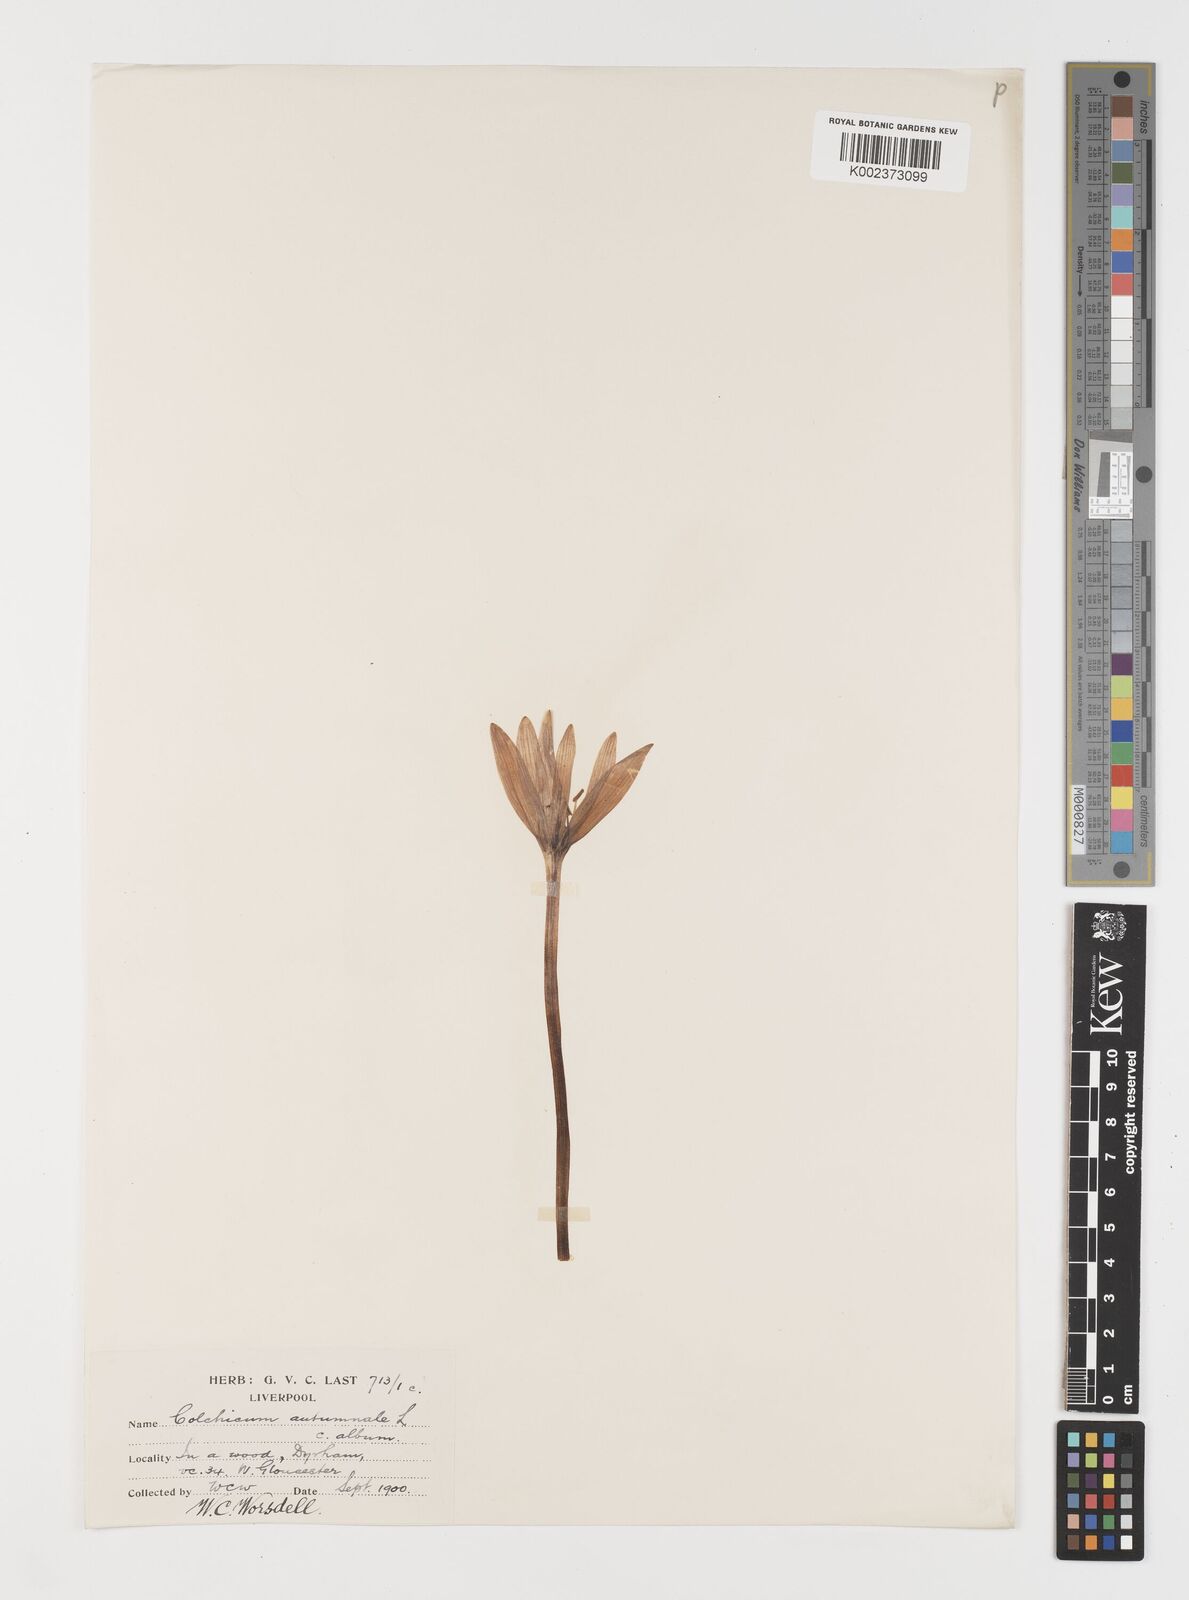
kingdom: Plantae
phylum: Tracheophyta
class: Liliopsida
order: Liliales
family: Colchicaceae
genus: Colchicum
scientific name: Colchicum autumnale
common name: Autumn crocus
